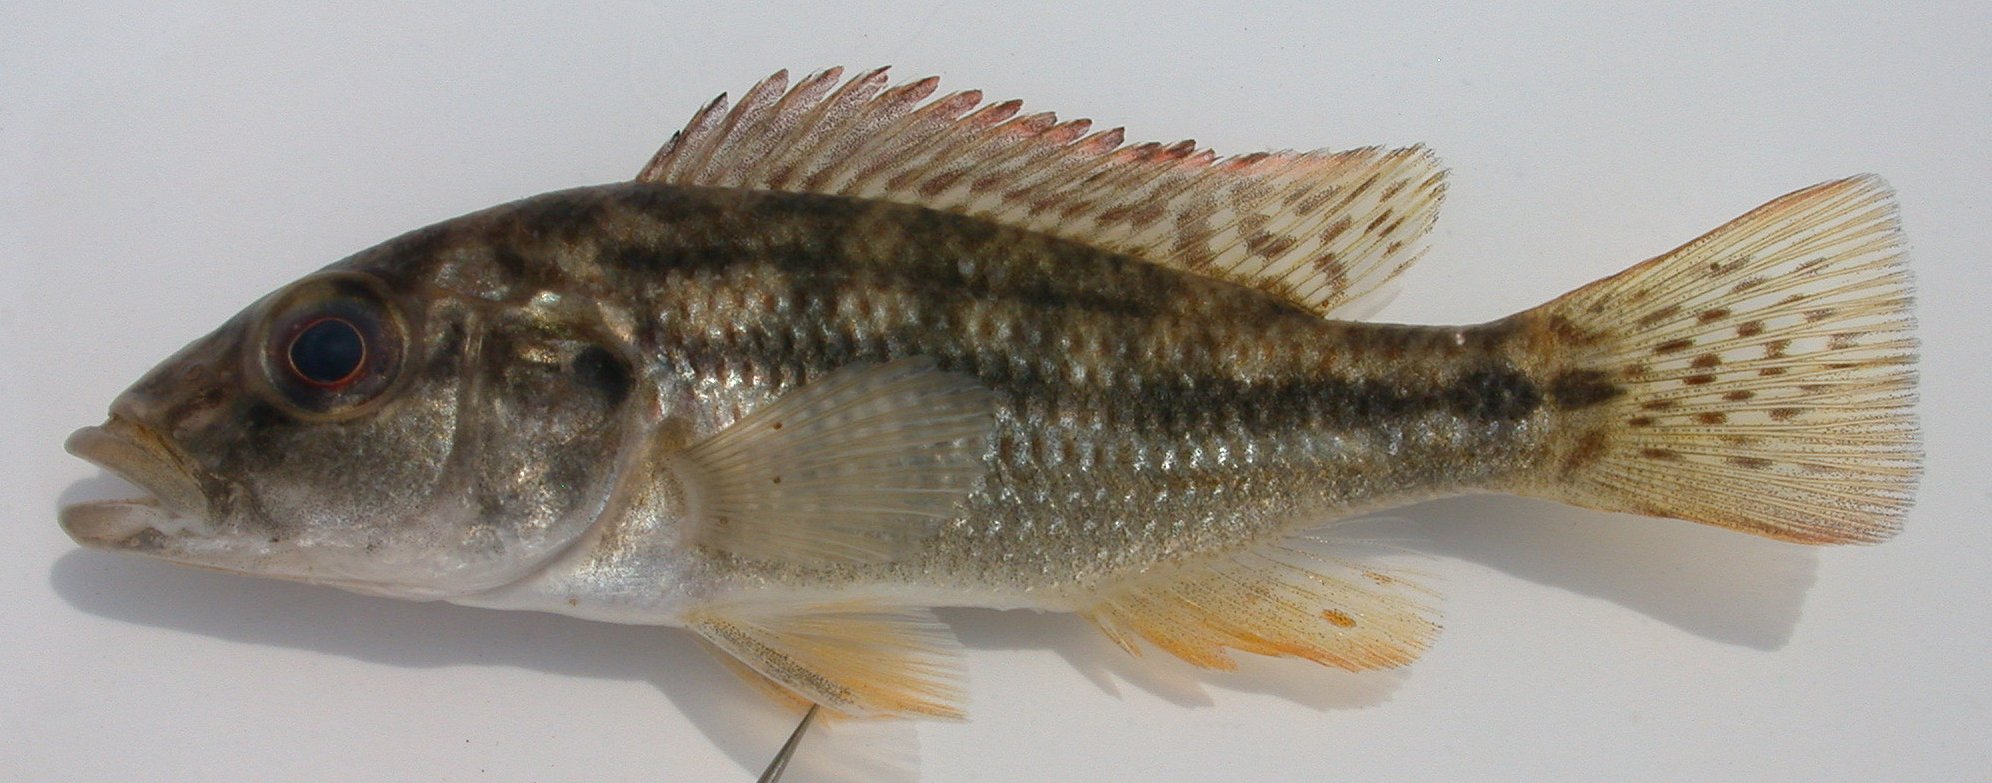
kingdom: Animalia
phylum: Chordata
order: Perciformes
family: Cichlidae
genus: Chetia
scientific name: Chetia flaviventris
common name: Canary kurper
